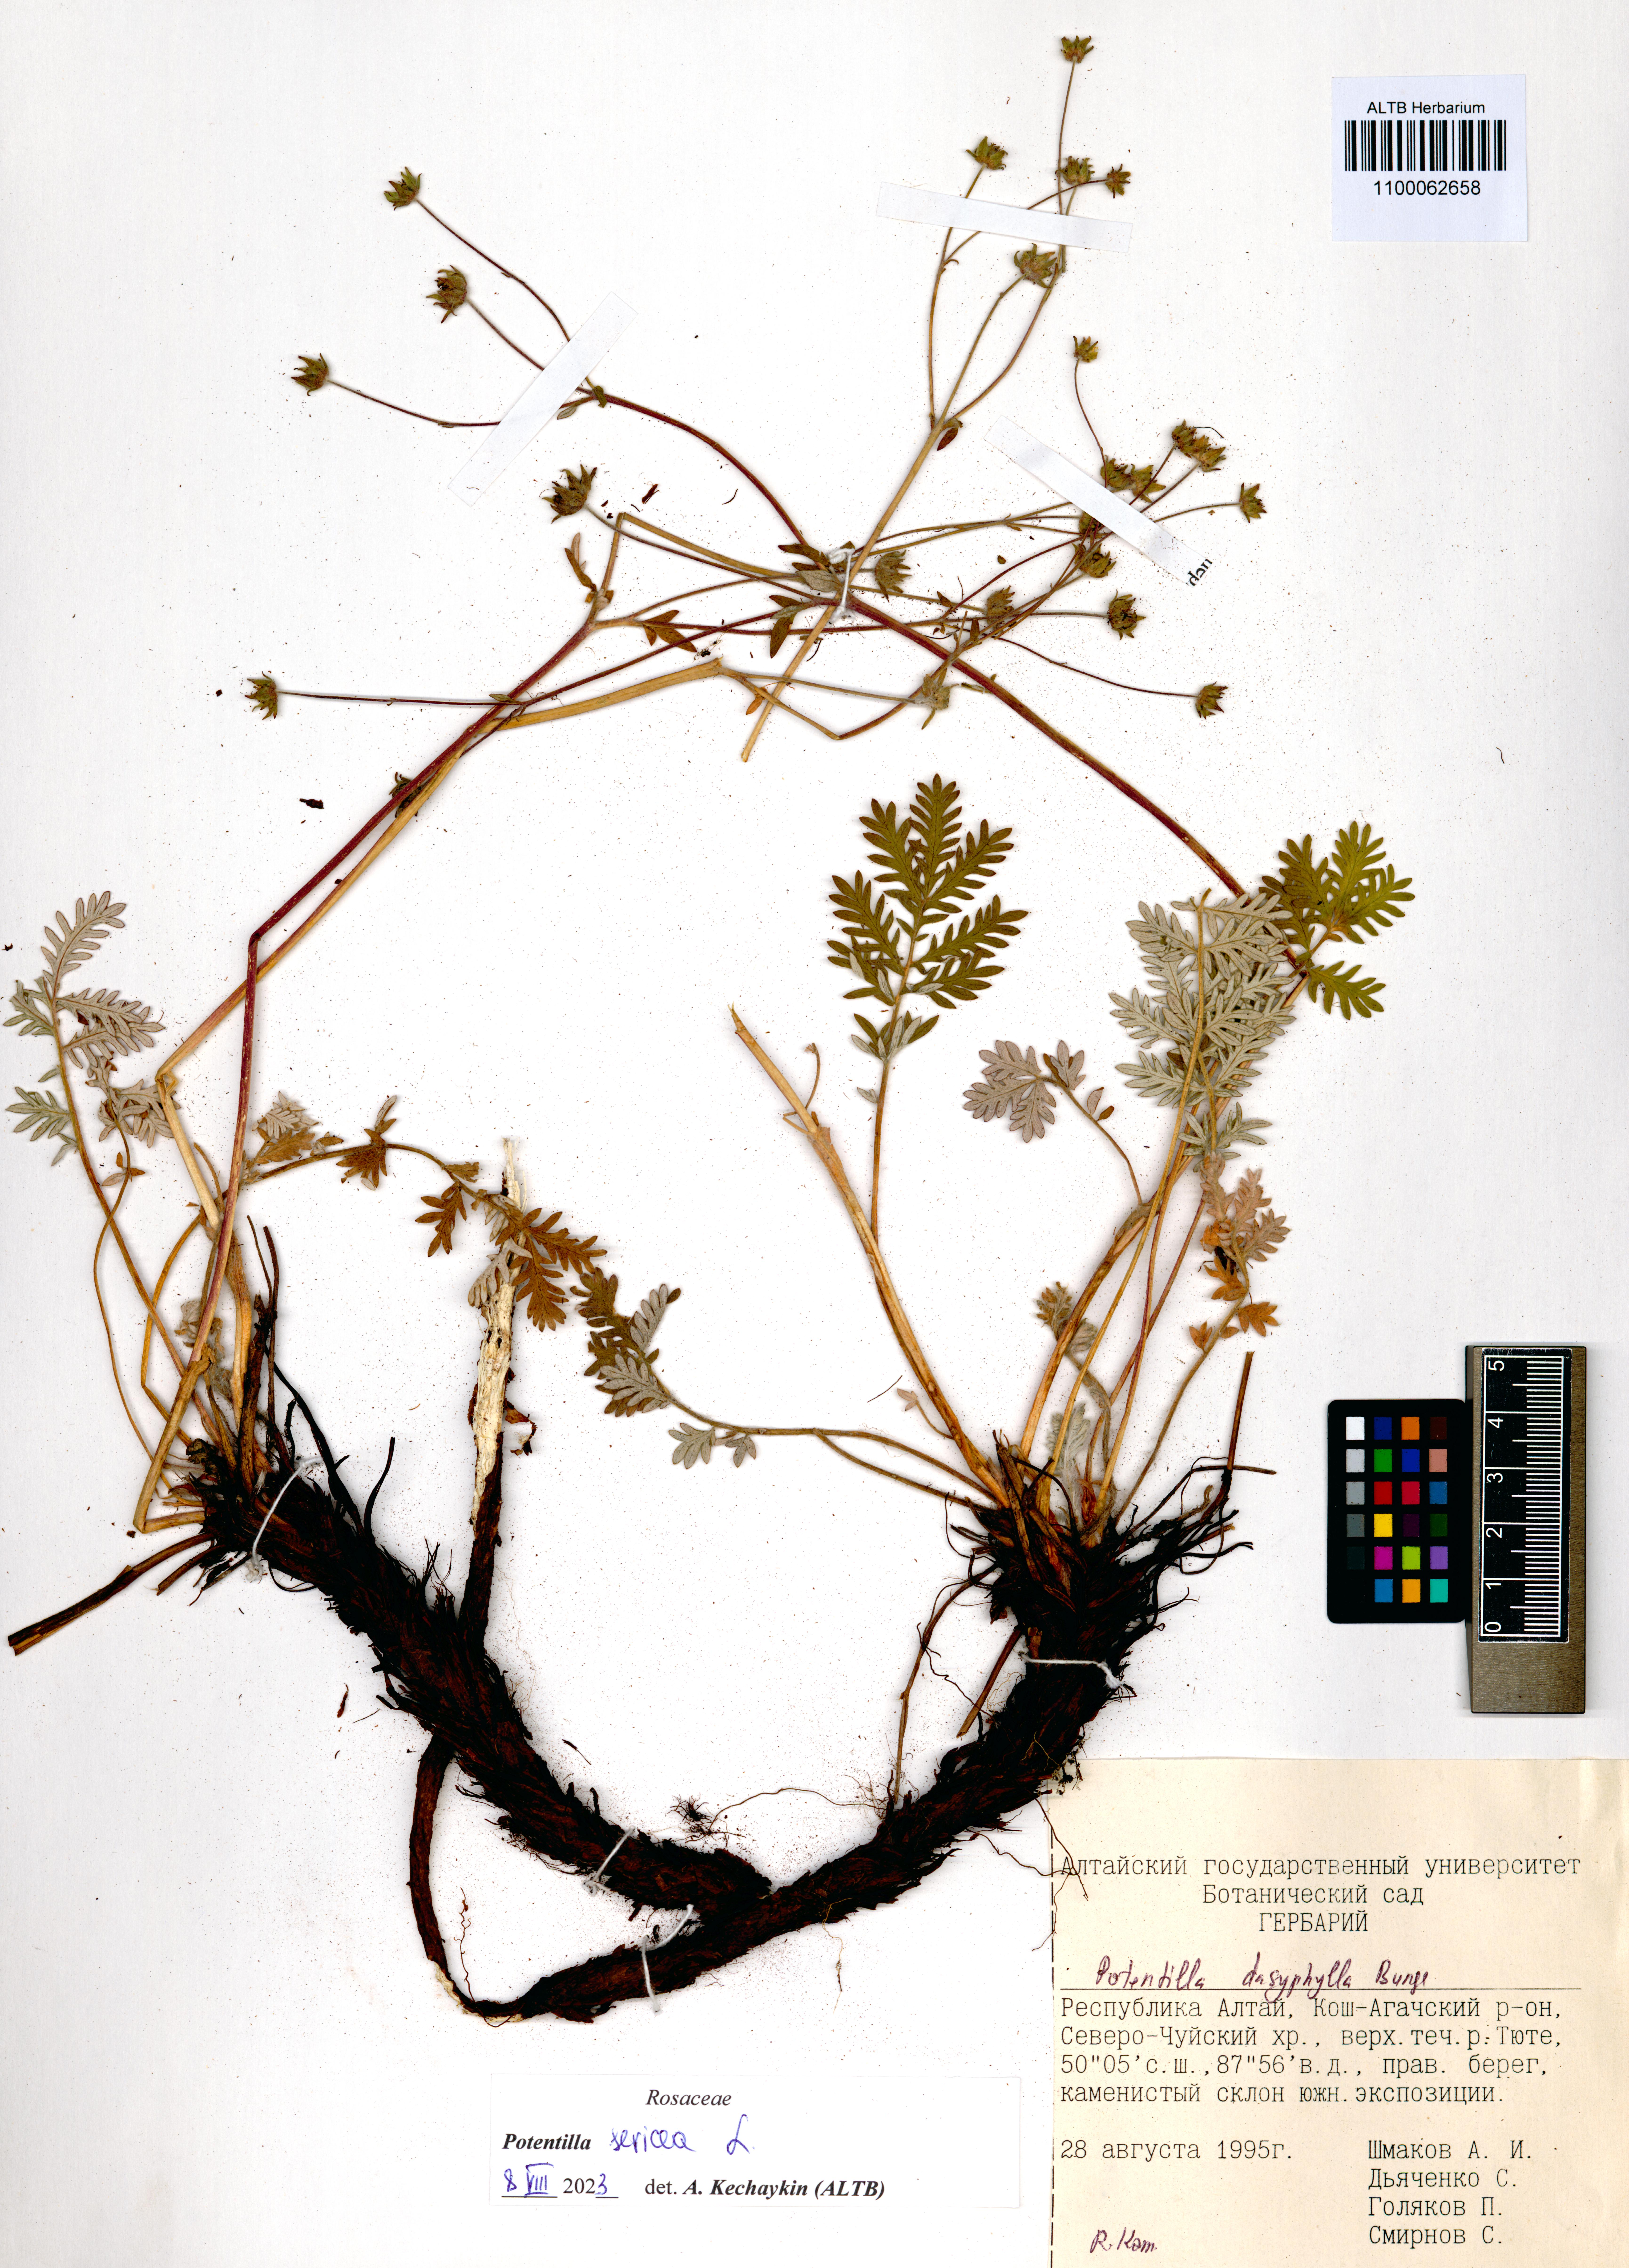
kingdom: Plantae
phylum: Tracheophyta
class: Magnoliopsida
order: Rosales
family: Rosaceae
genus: Potentilla
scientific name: Potentilla sericea
